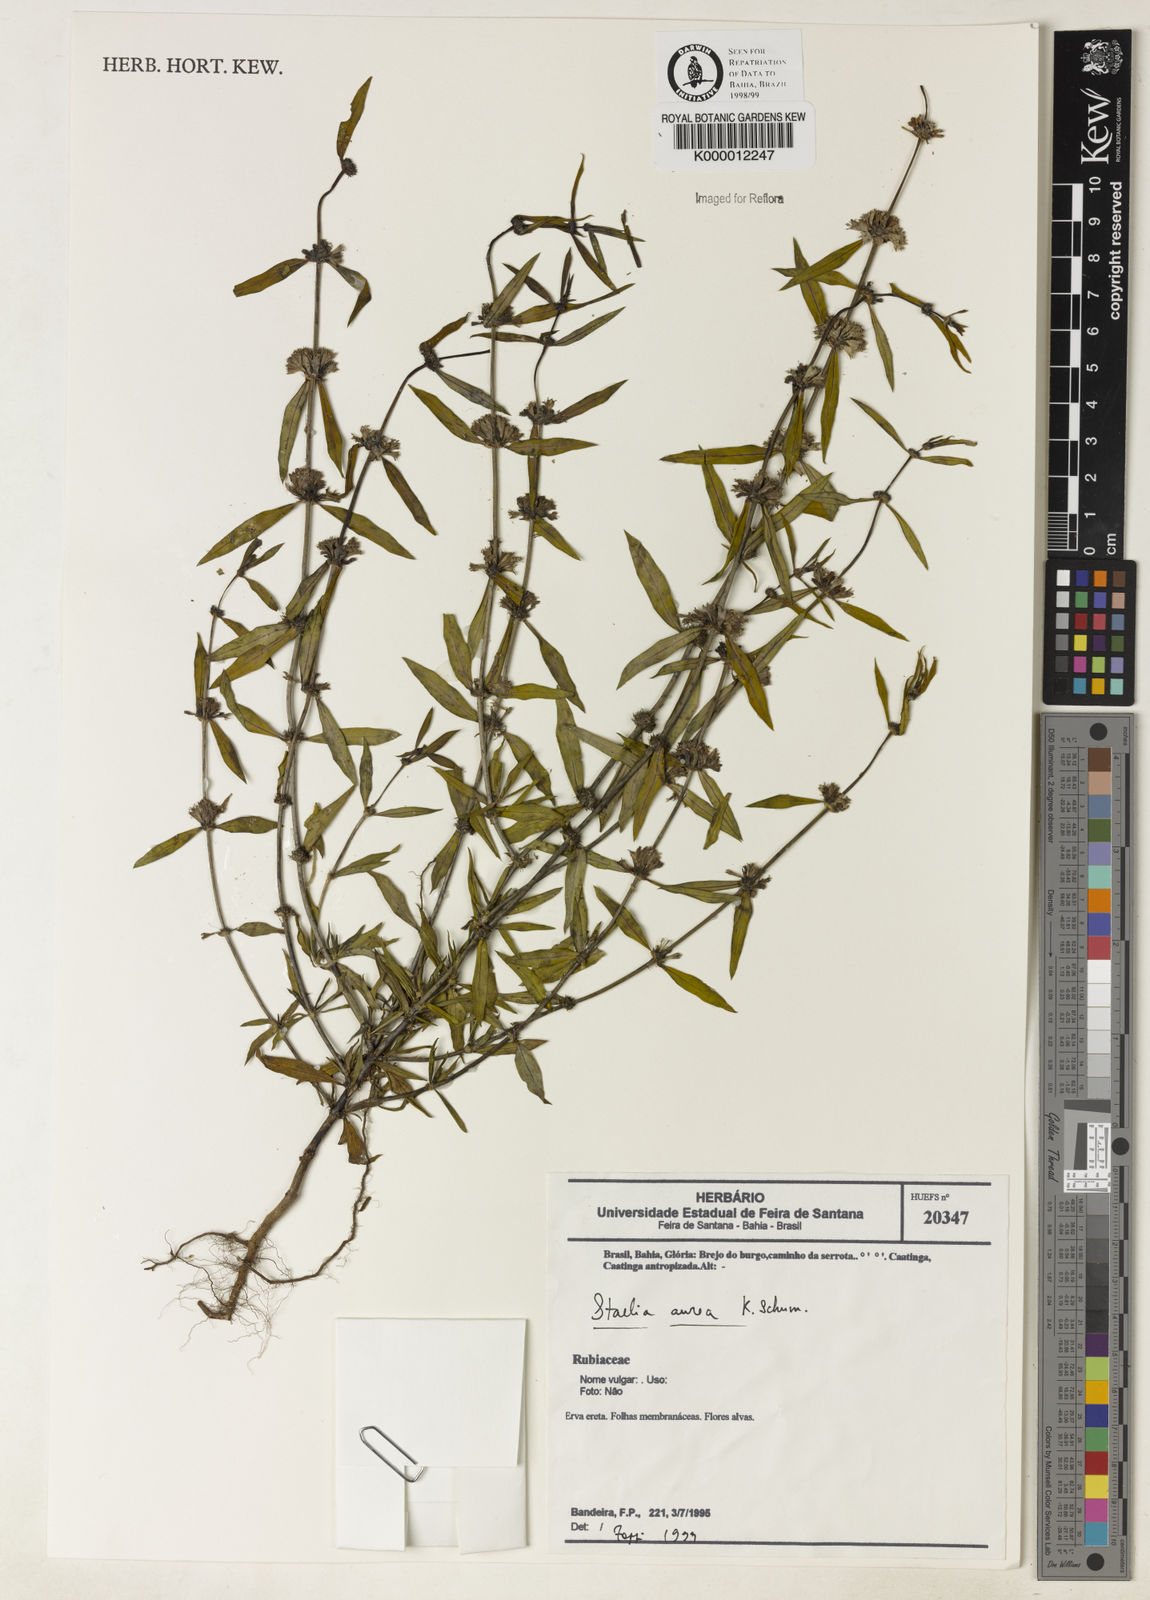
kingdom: Plantae
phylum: Tracheophyta
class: Magnoliopsida
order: Gentianales
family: Rubiaceae
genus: Staelia
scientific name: Staelia aurea
